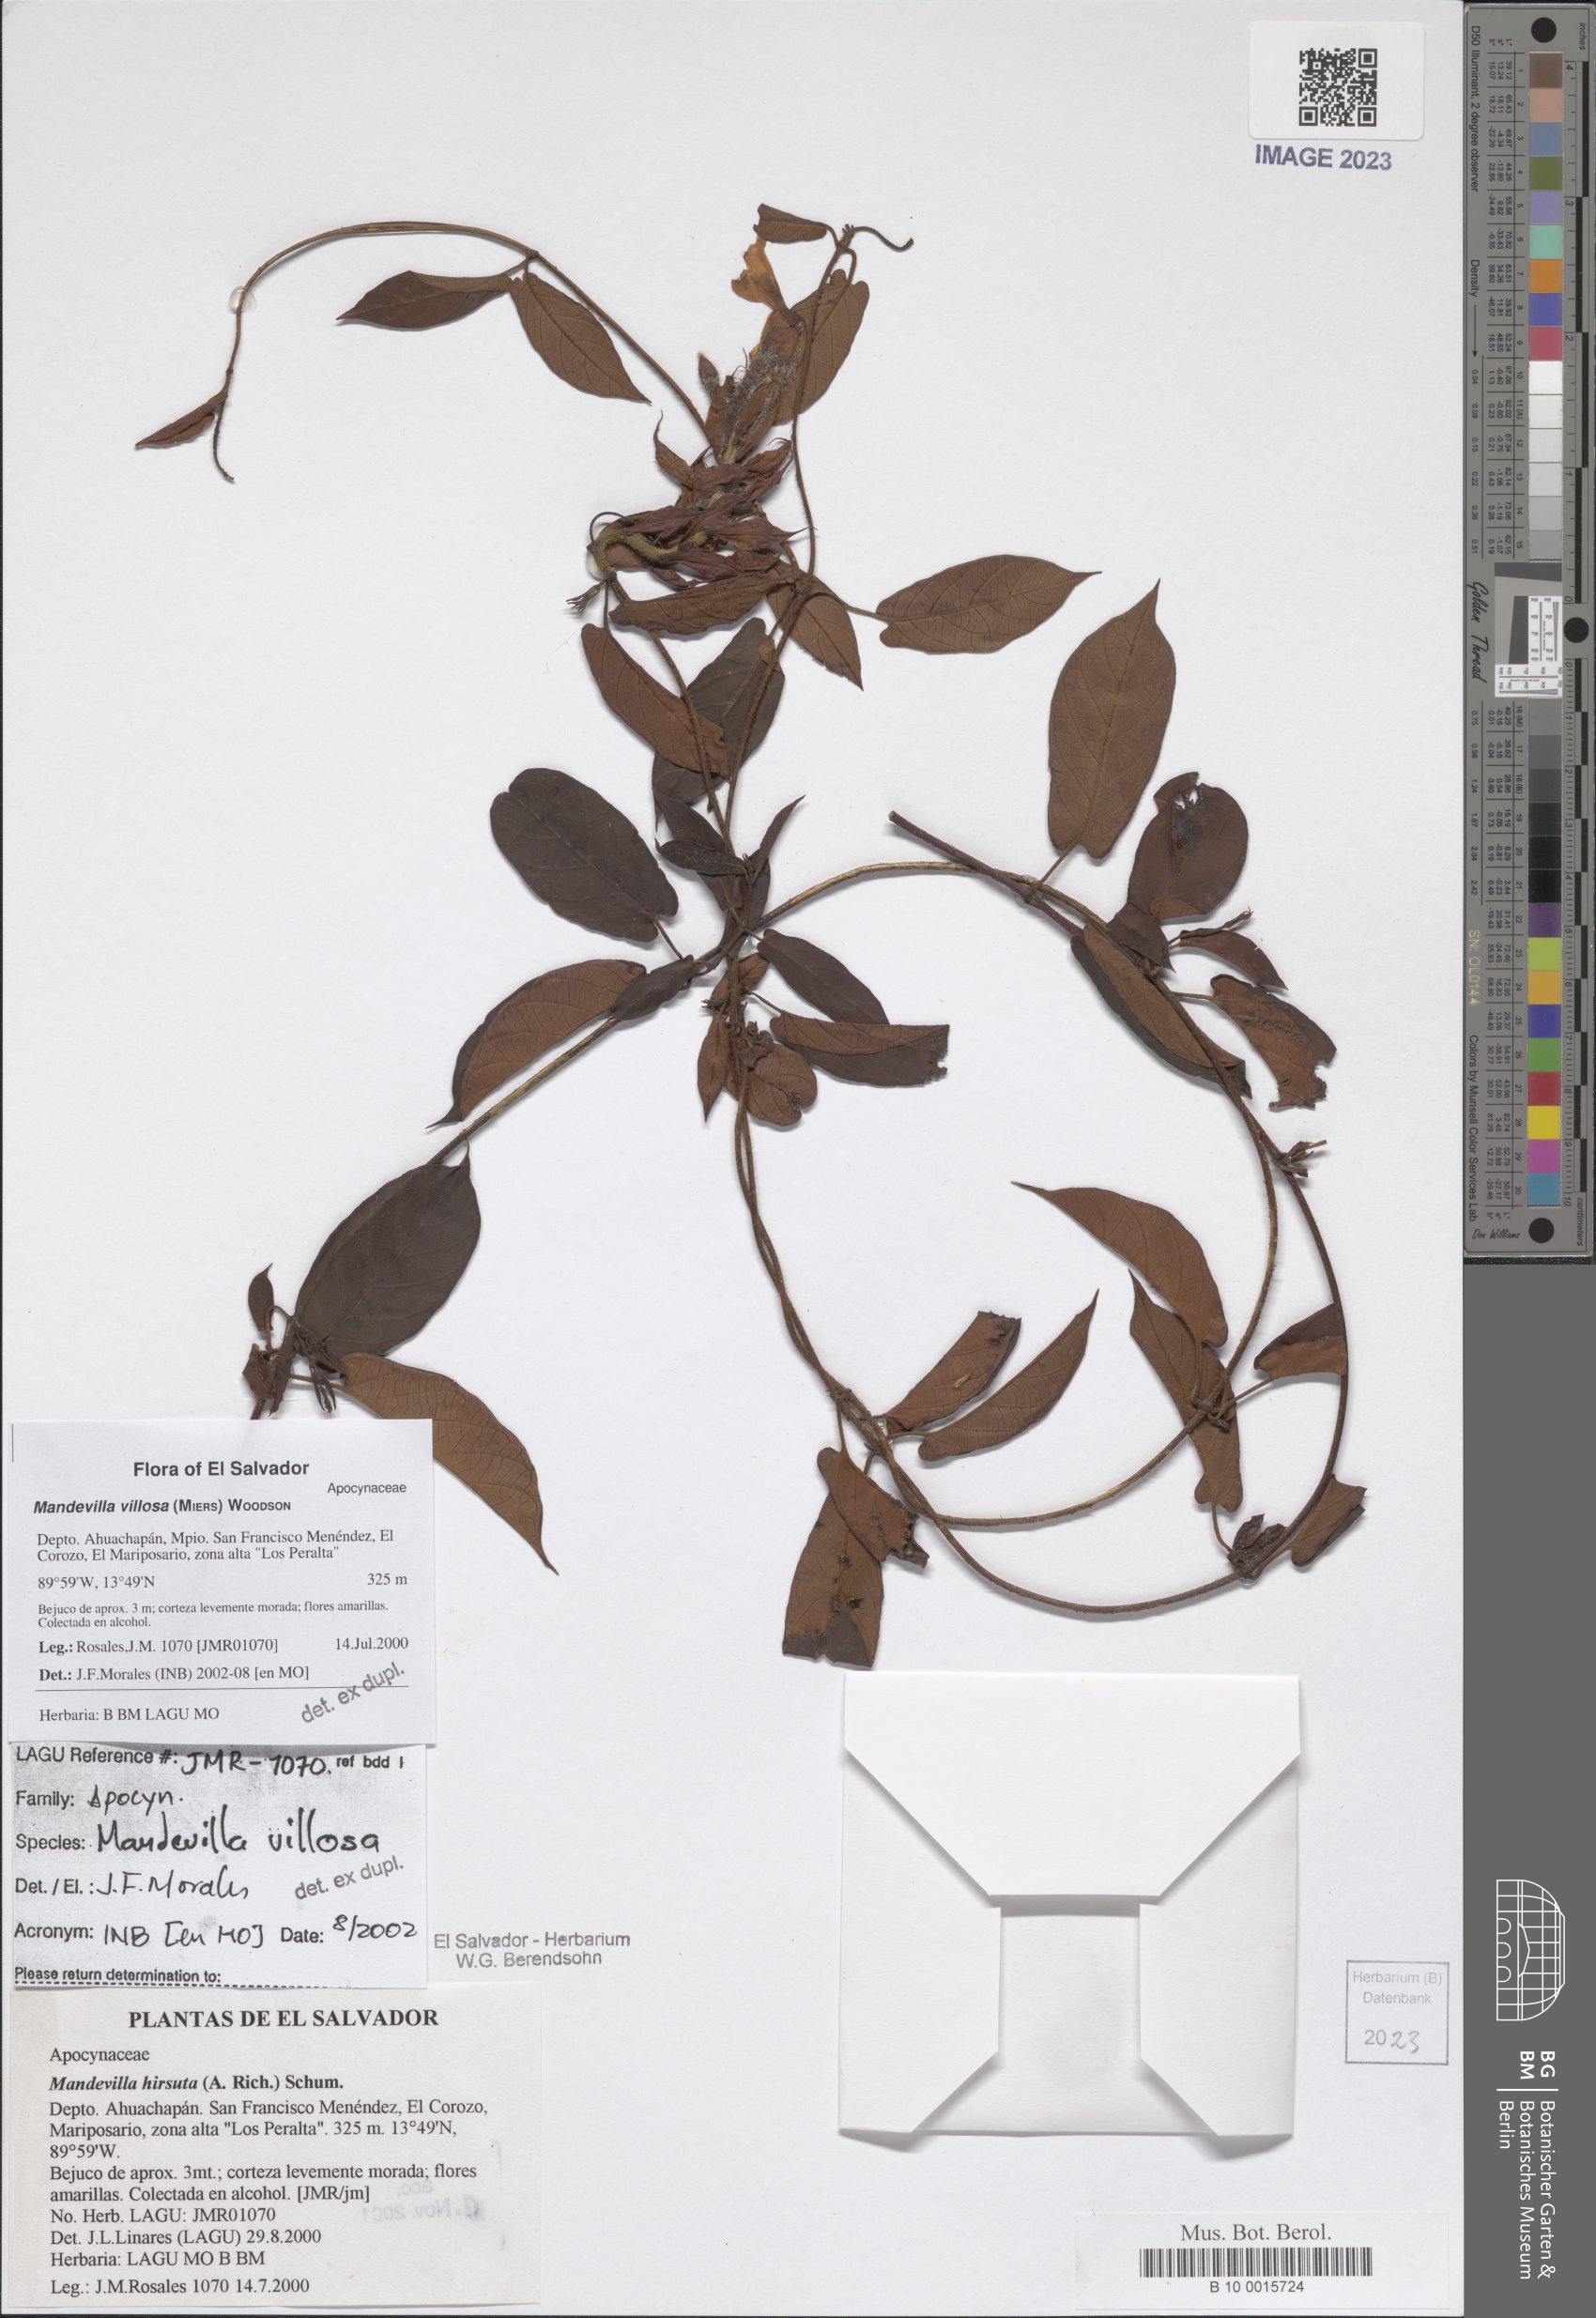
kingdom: Plantae
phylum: Tracheophyta
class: Magnoliopsida
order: Gentianales
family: Apocynaceae
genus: Mandevilla
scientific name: Mandevilla villosa
